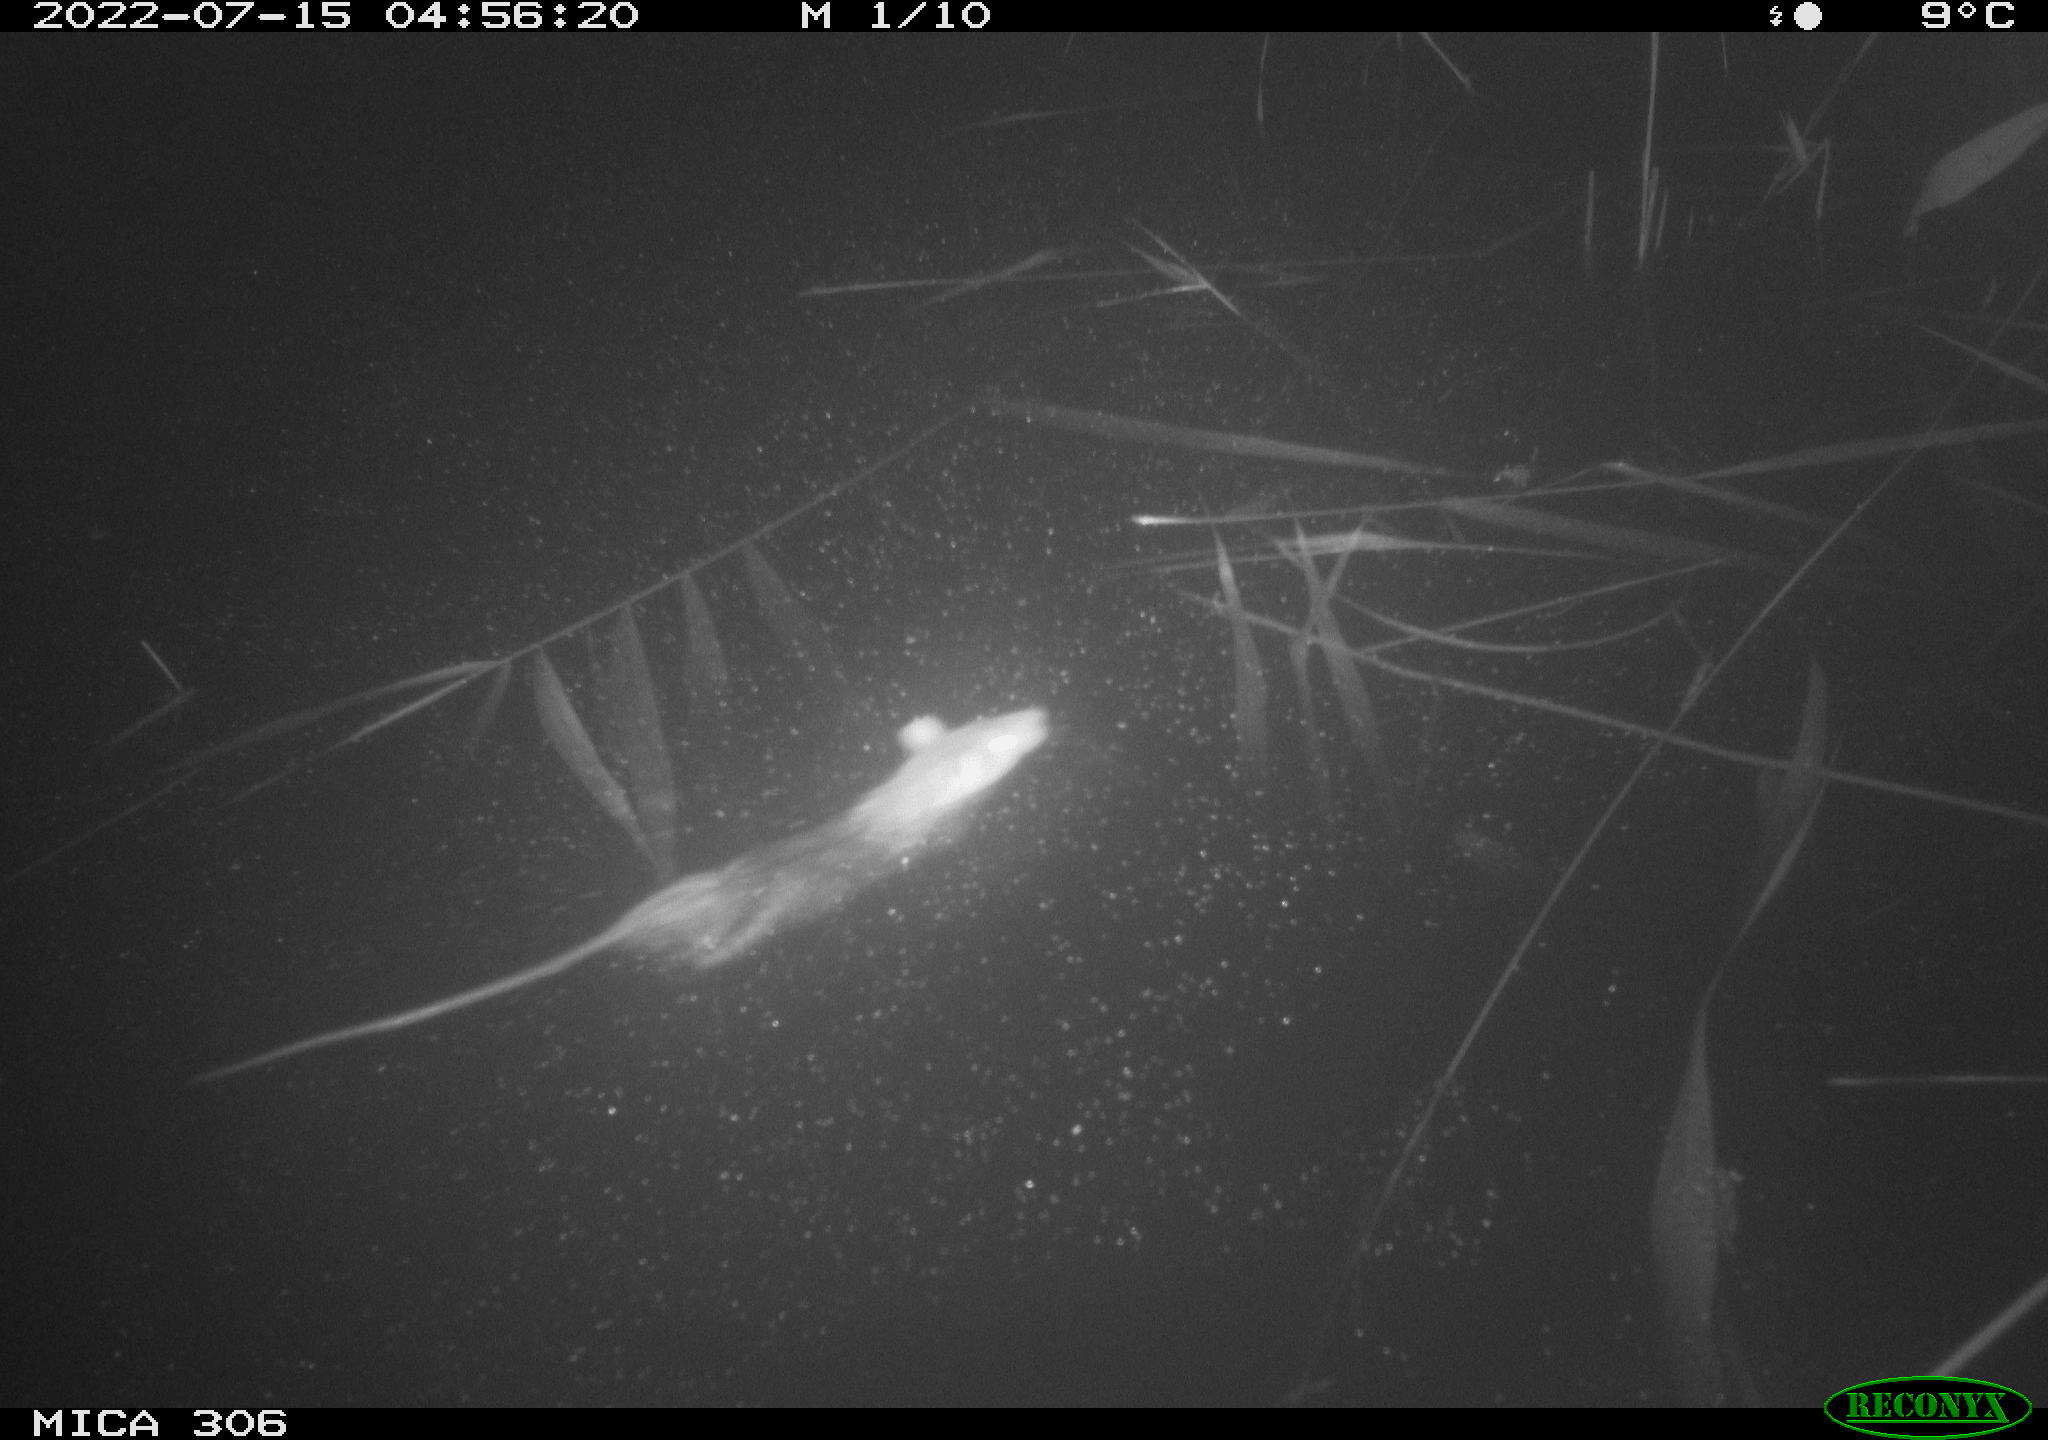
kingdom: Animalia
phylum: Chordata
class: Mammalia
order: Rodentia
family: Muridae
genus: Rattus
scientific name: Rattus norvegicus
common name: Brown rat
